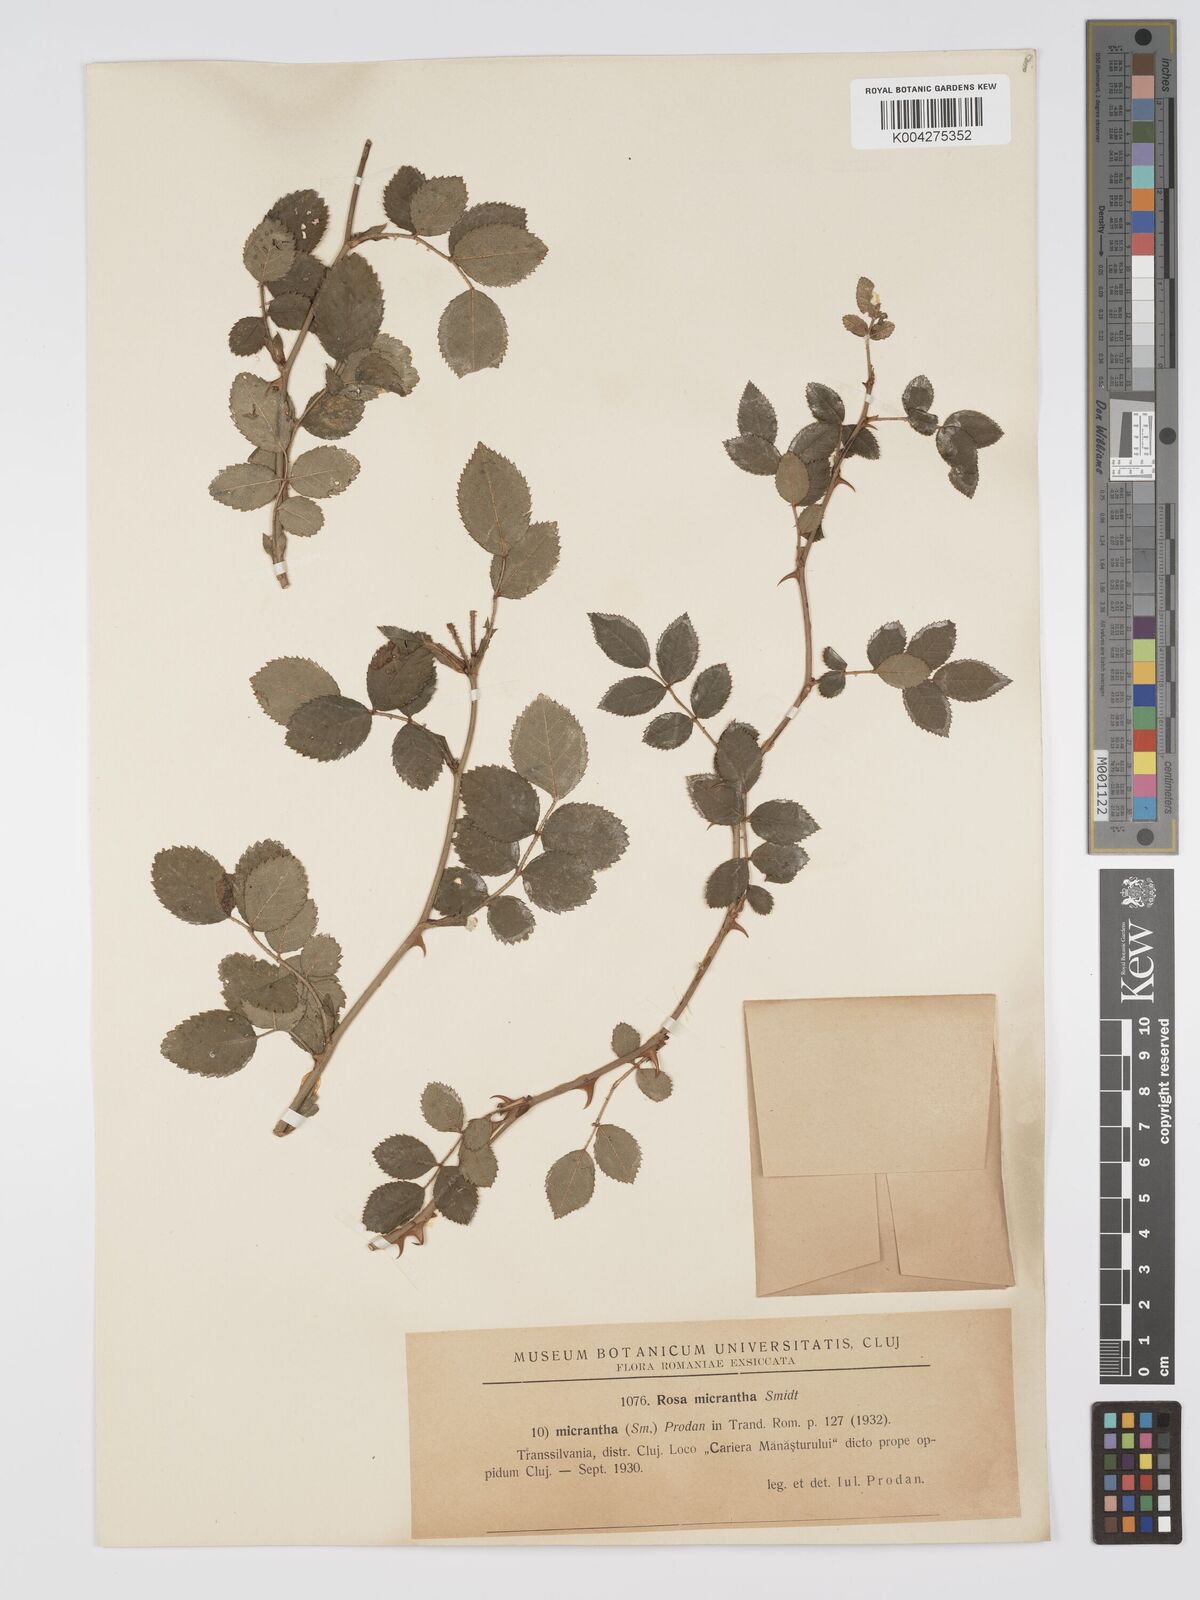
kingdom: Plantae
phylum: Tracheophyta
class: Magnoliopsida
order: Rosales
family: Rosaceae
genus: Rosa
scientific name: Rosa
